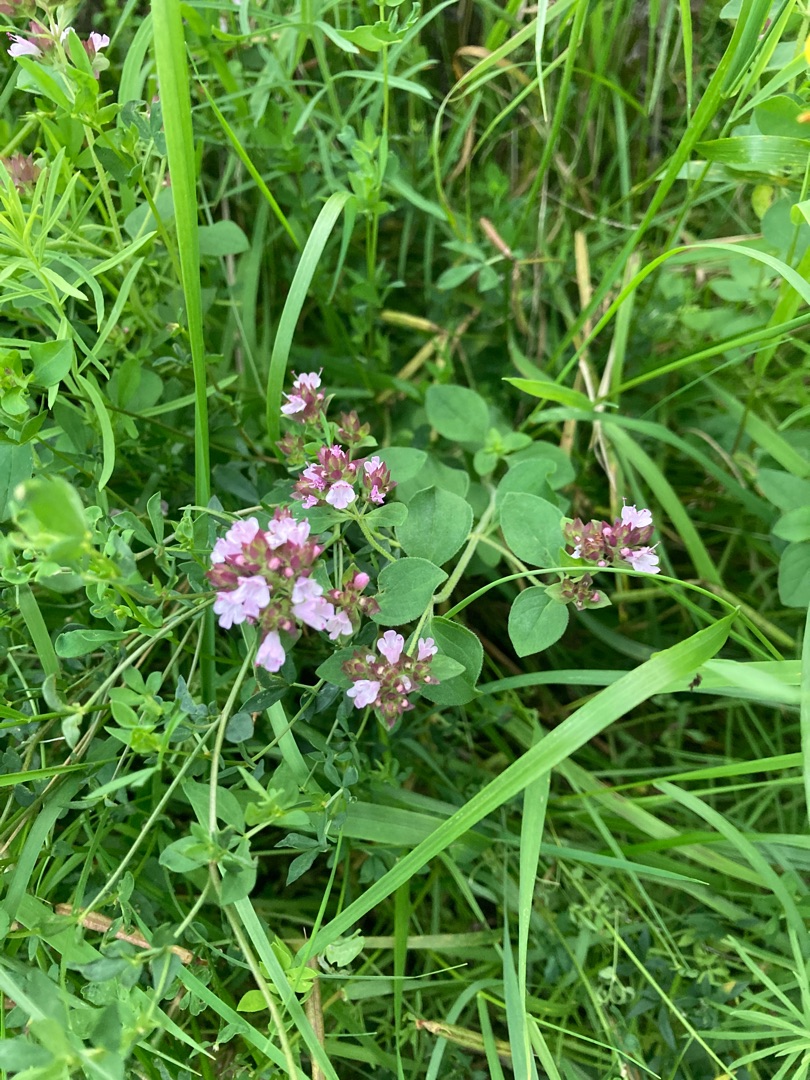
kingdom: Plantae
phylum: Tracheophyta
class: Magnoliopsida
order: Lamiales
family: Lamiaceae
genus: Origanum
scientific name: Origanum vulgare
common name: Merian
